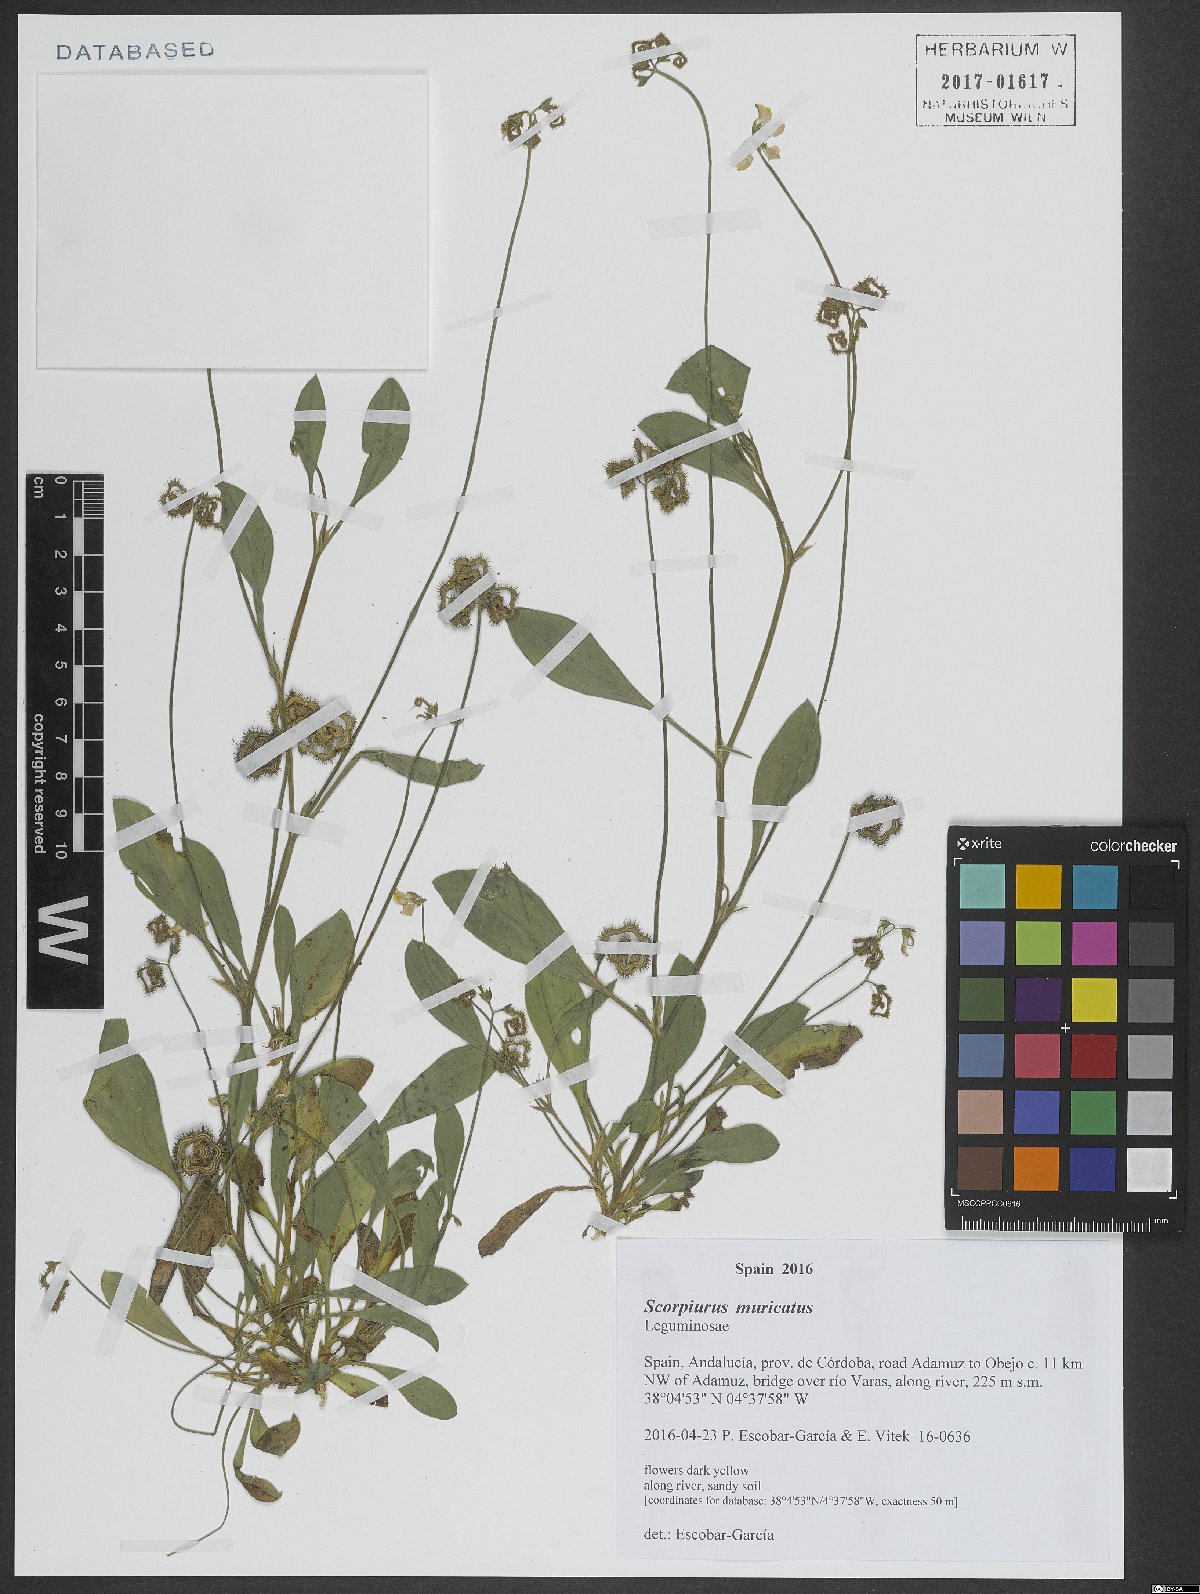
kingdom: Plantae
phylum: Tracheophyta
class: Magnoliopsida
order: Fabales
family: Fabaceae
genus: Scorpiurus
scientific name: Scorpiurus muricatus
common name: Caterpillar-plant
